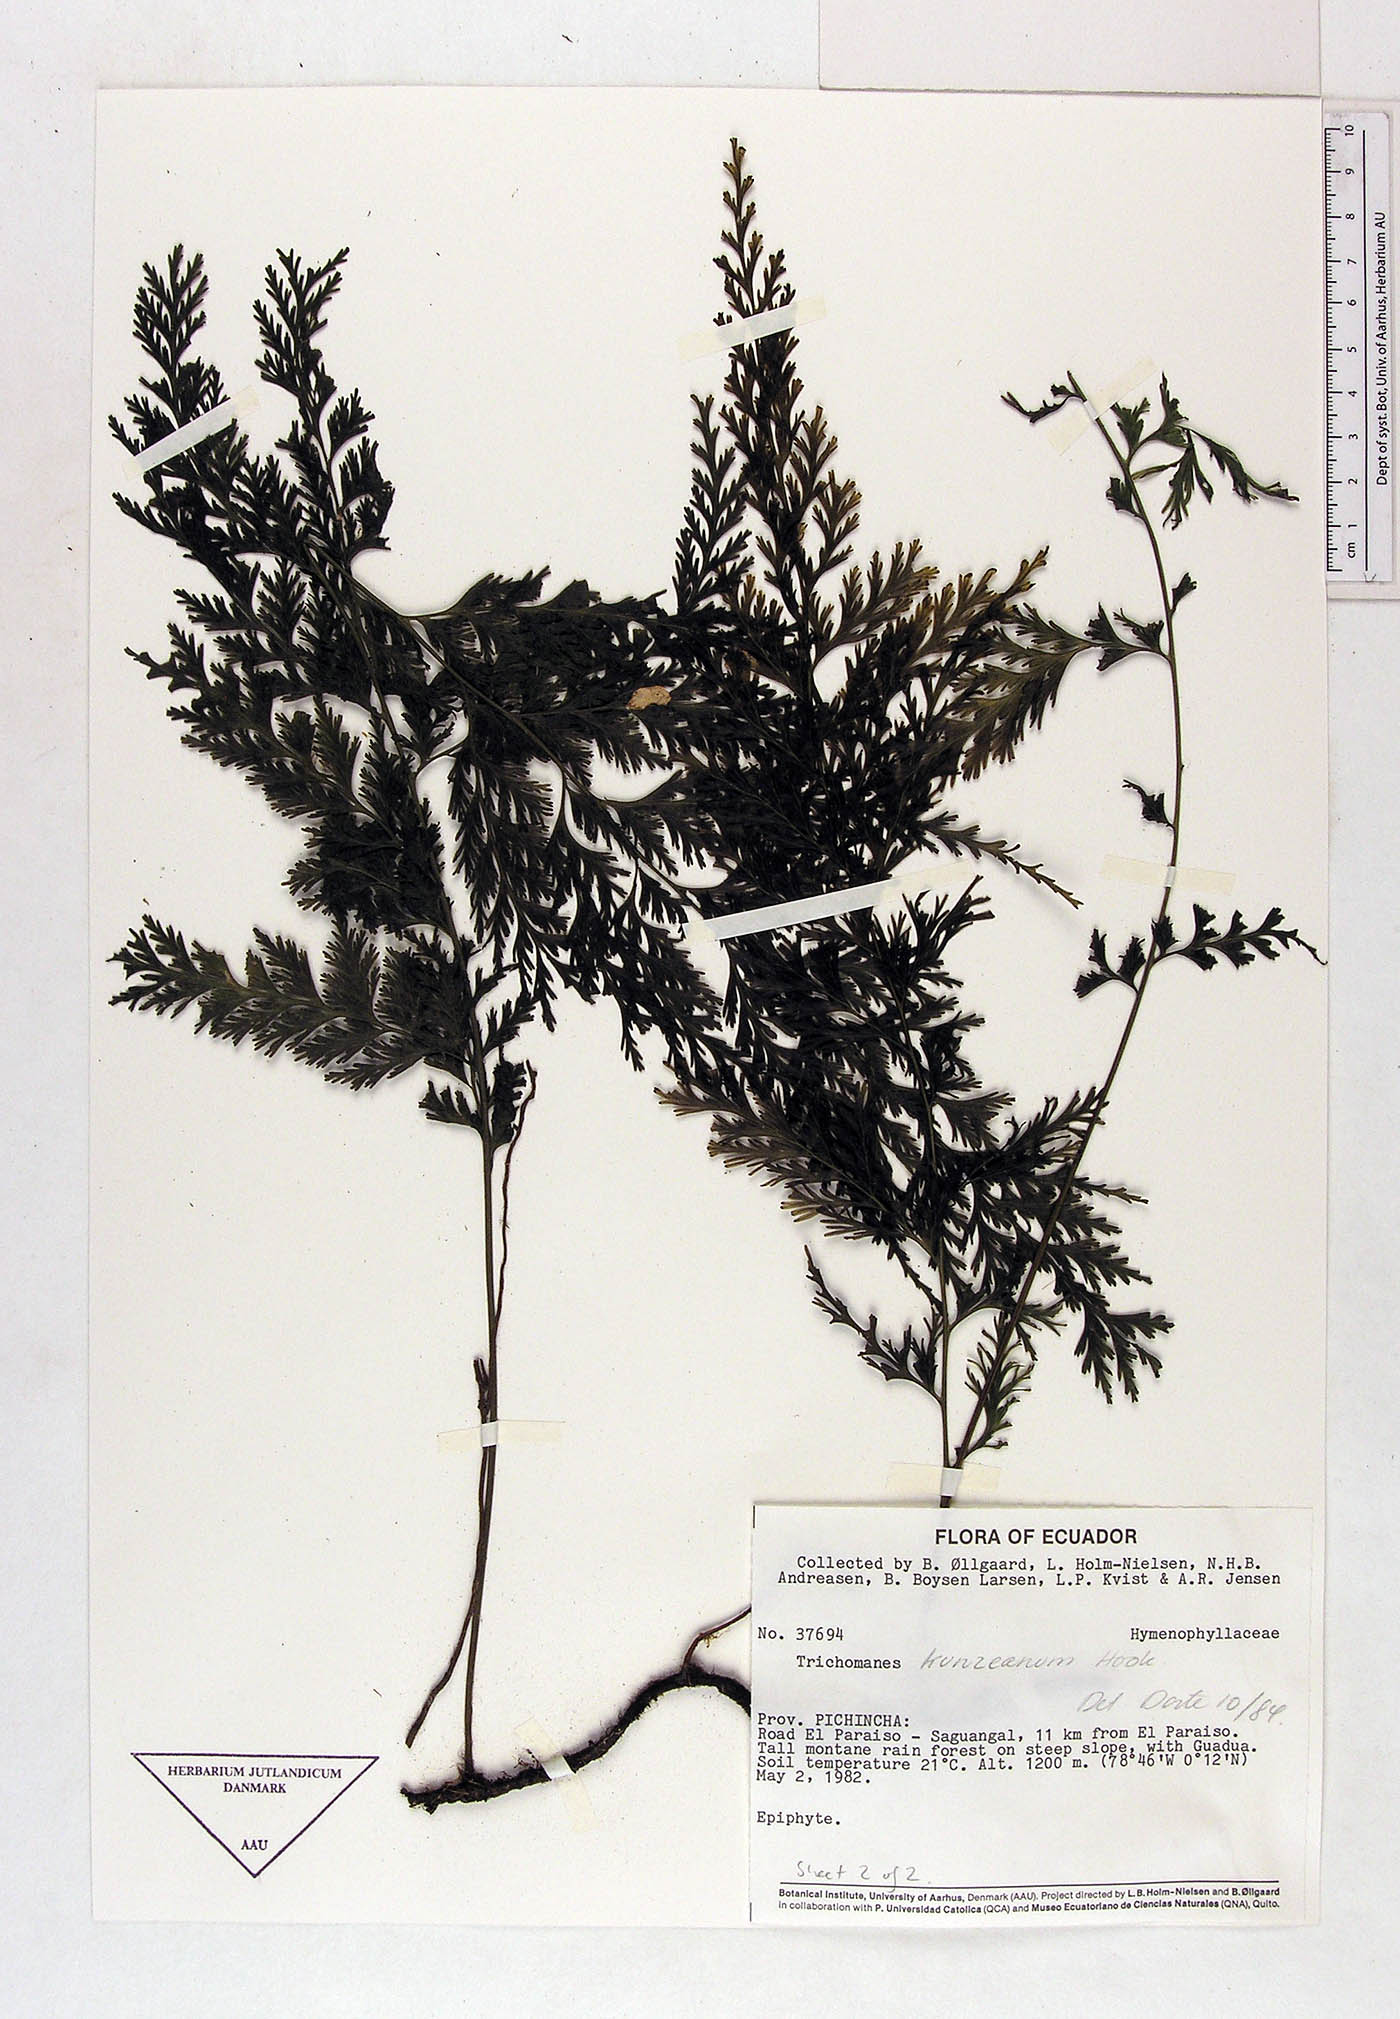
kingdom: Plantae
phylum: Tracheophyta
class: Polypodiopsida
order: Hymenophyllales
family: Hymenophyllaceae
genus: Vandenboschia
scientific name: Vandenboschia radicans
